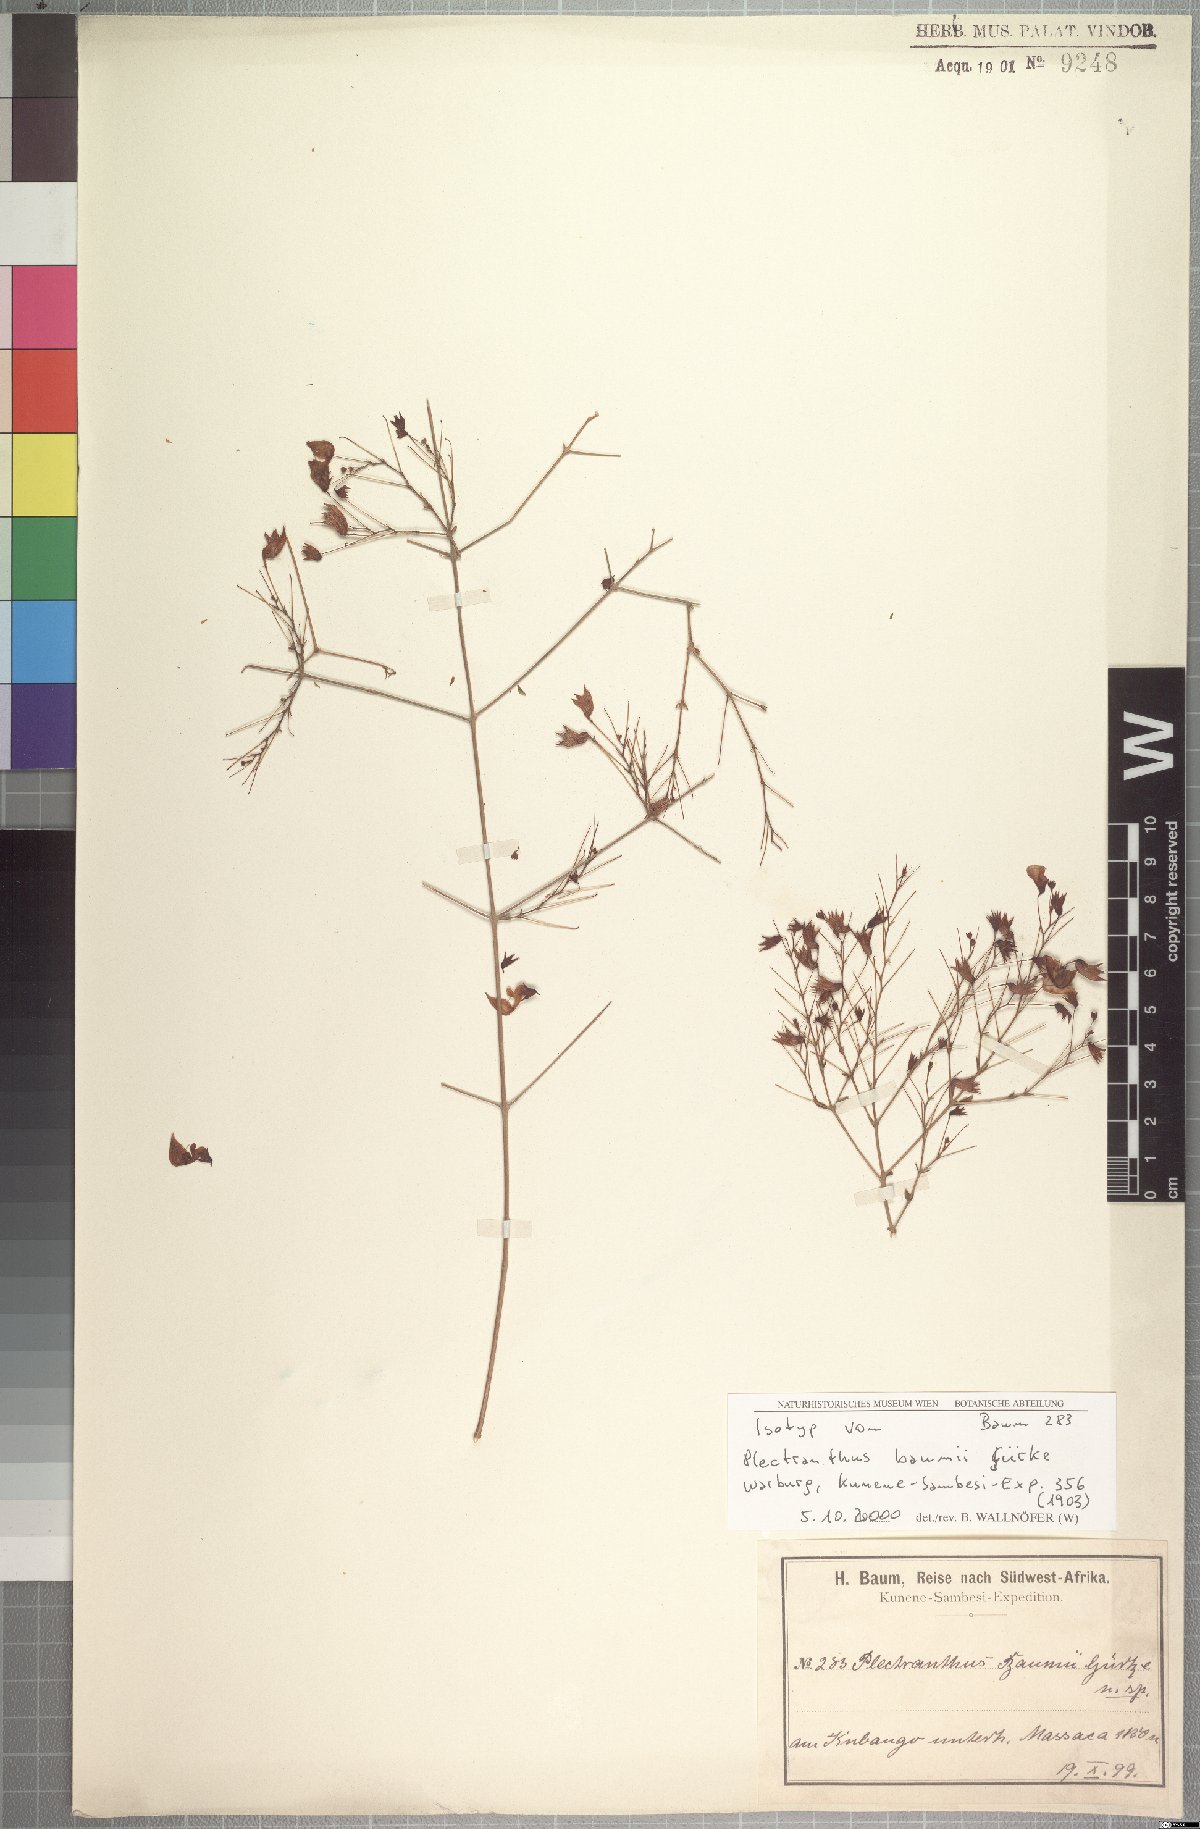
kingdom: Plantae
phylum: Tracheophyta
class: Magnoliopsida
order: Lamiales
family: Lamiaceae
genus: Coleus
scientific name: Coleus gracilipedicellatum
